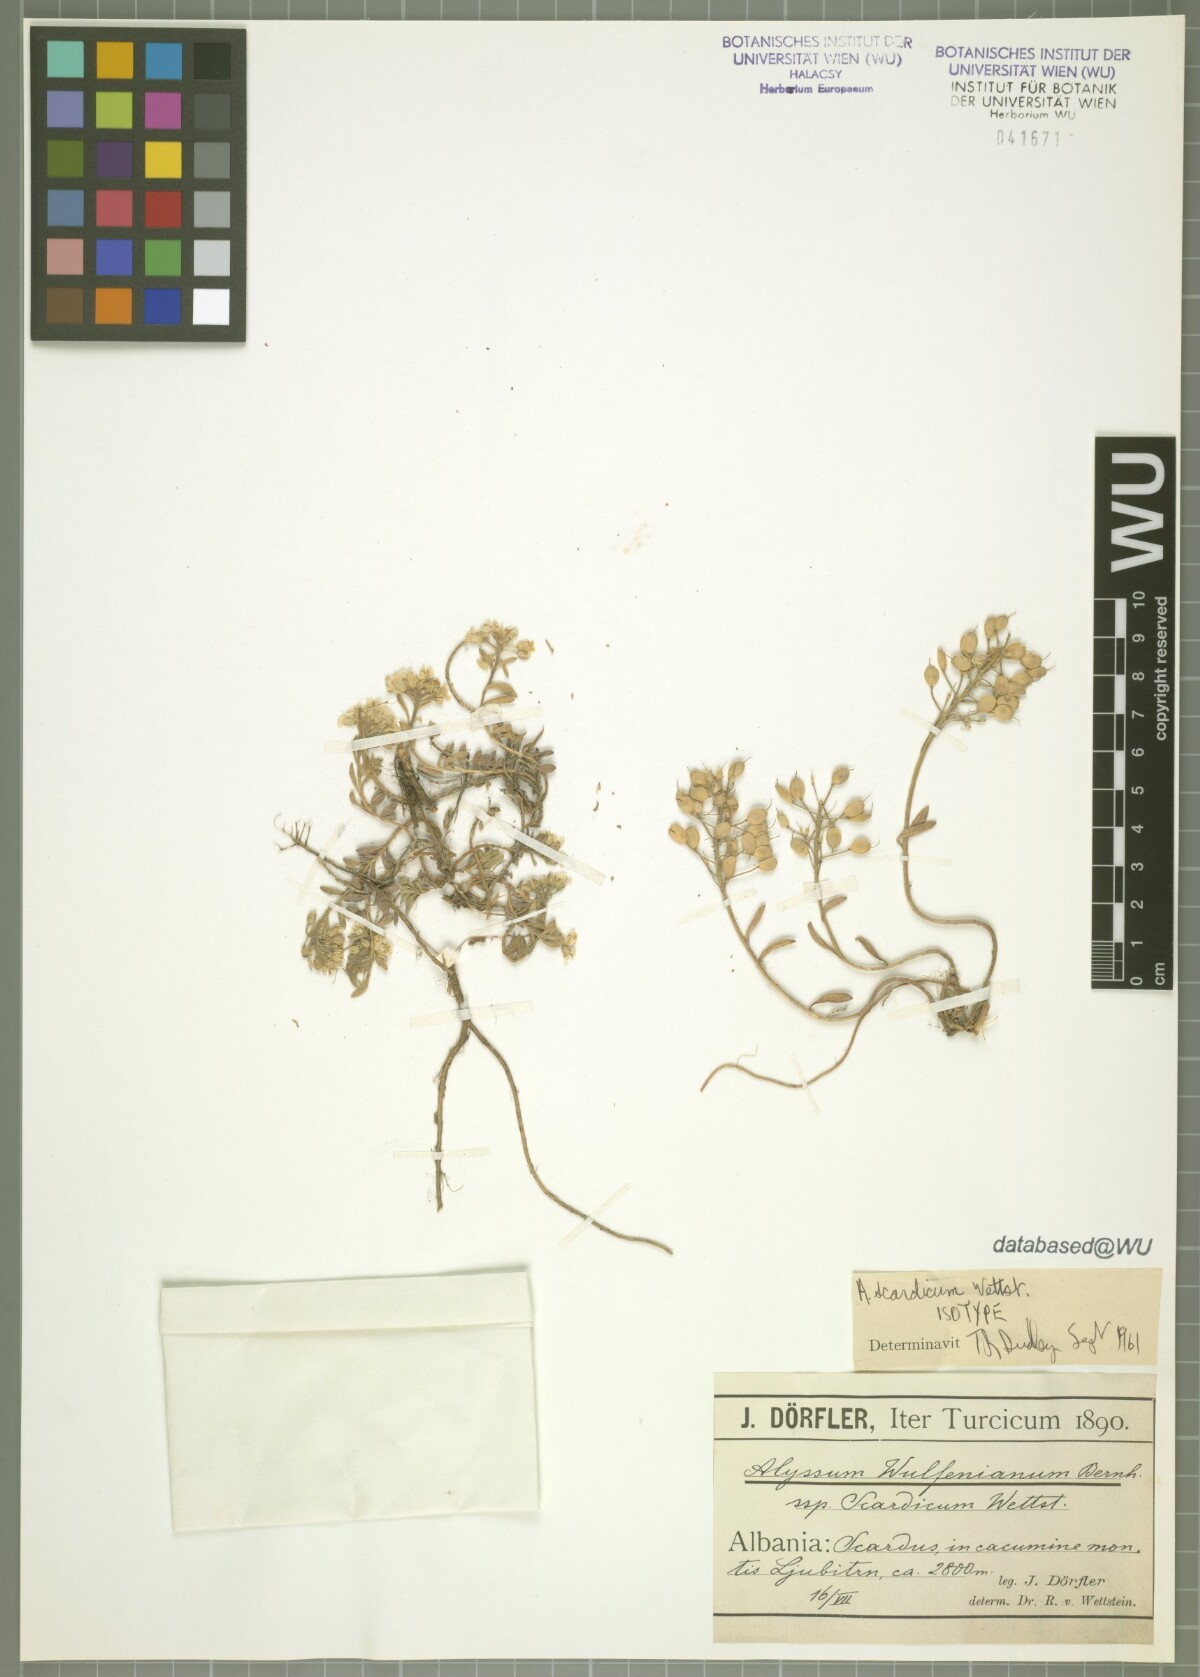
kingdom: Plantae
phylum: Tracheophyta
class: Magnoliopsida
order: Brassicales
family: Brassicaceae
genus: Alyssum
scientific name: Alyssum pirinicum
